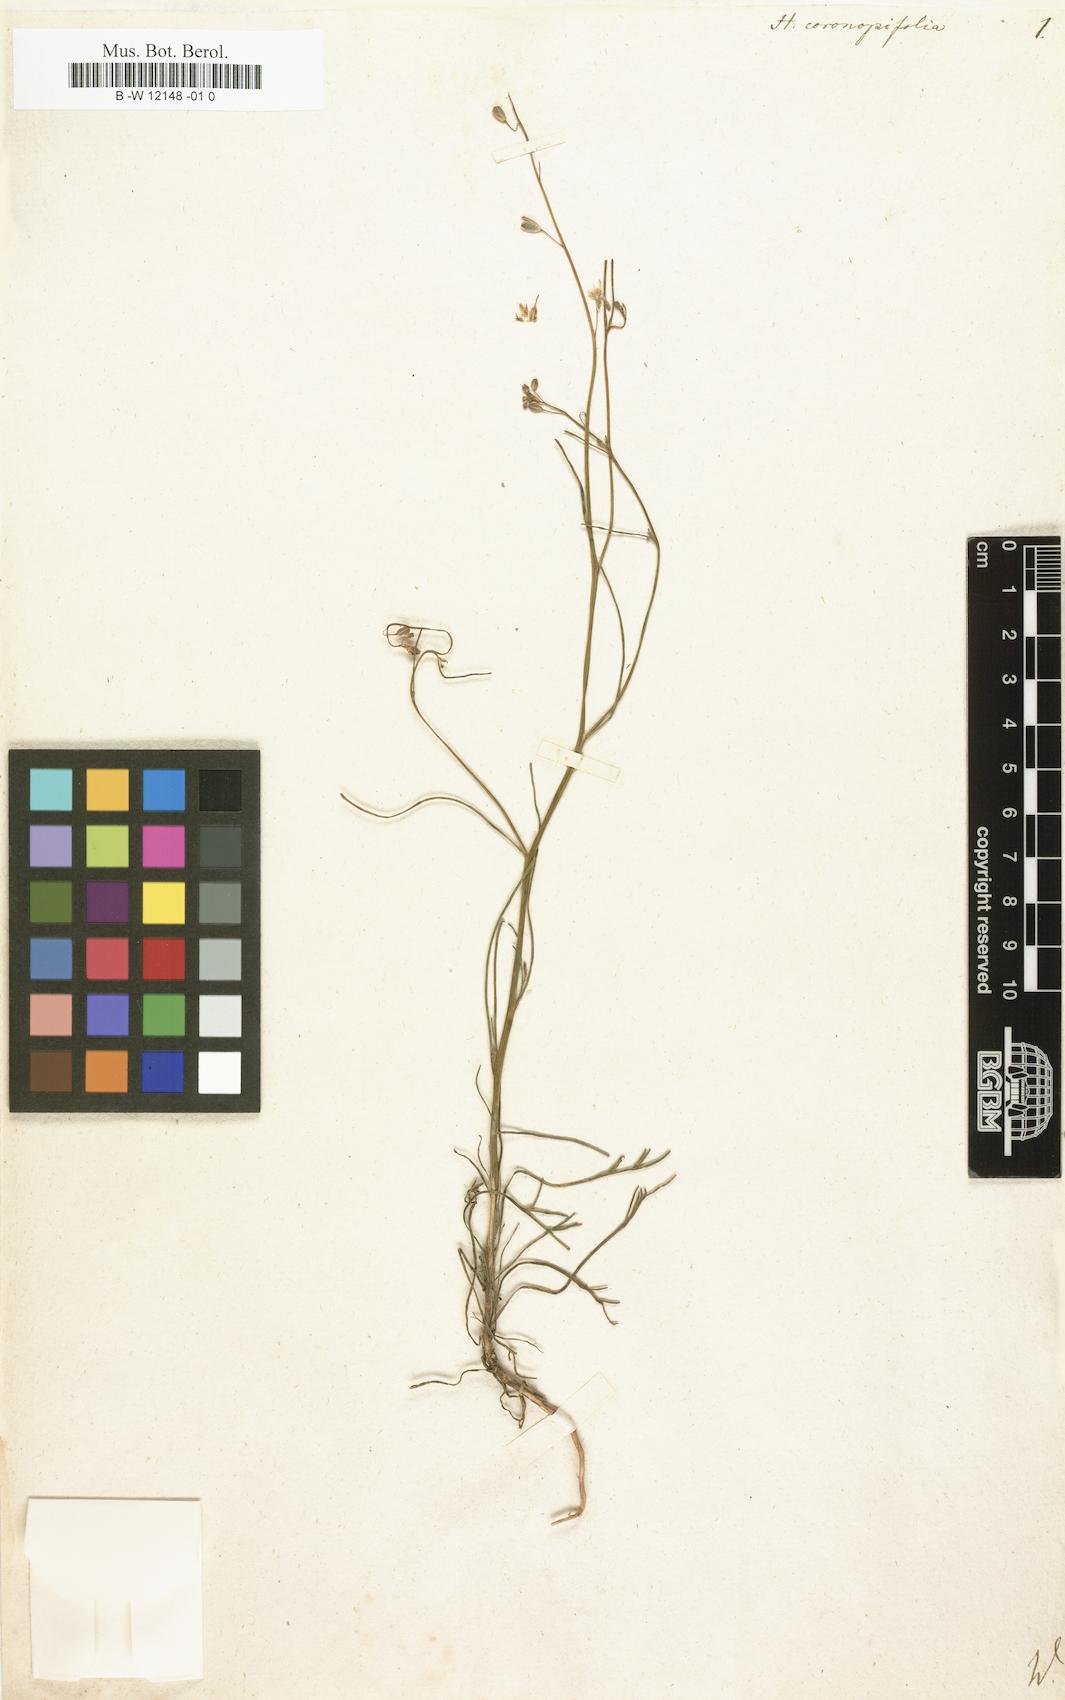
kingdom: Plantae
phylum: Tracheophyta
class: Magnoliopsida
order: Brassicales
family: Brassicaceae
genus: Matthiola
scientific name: Matthiola fruticulosa
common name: Sad stock
